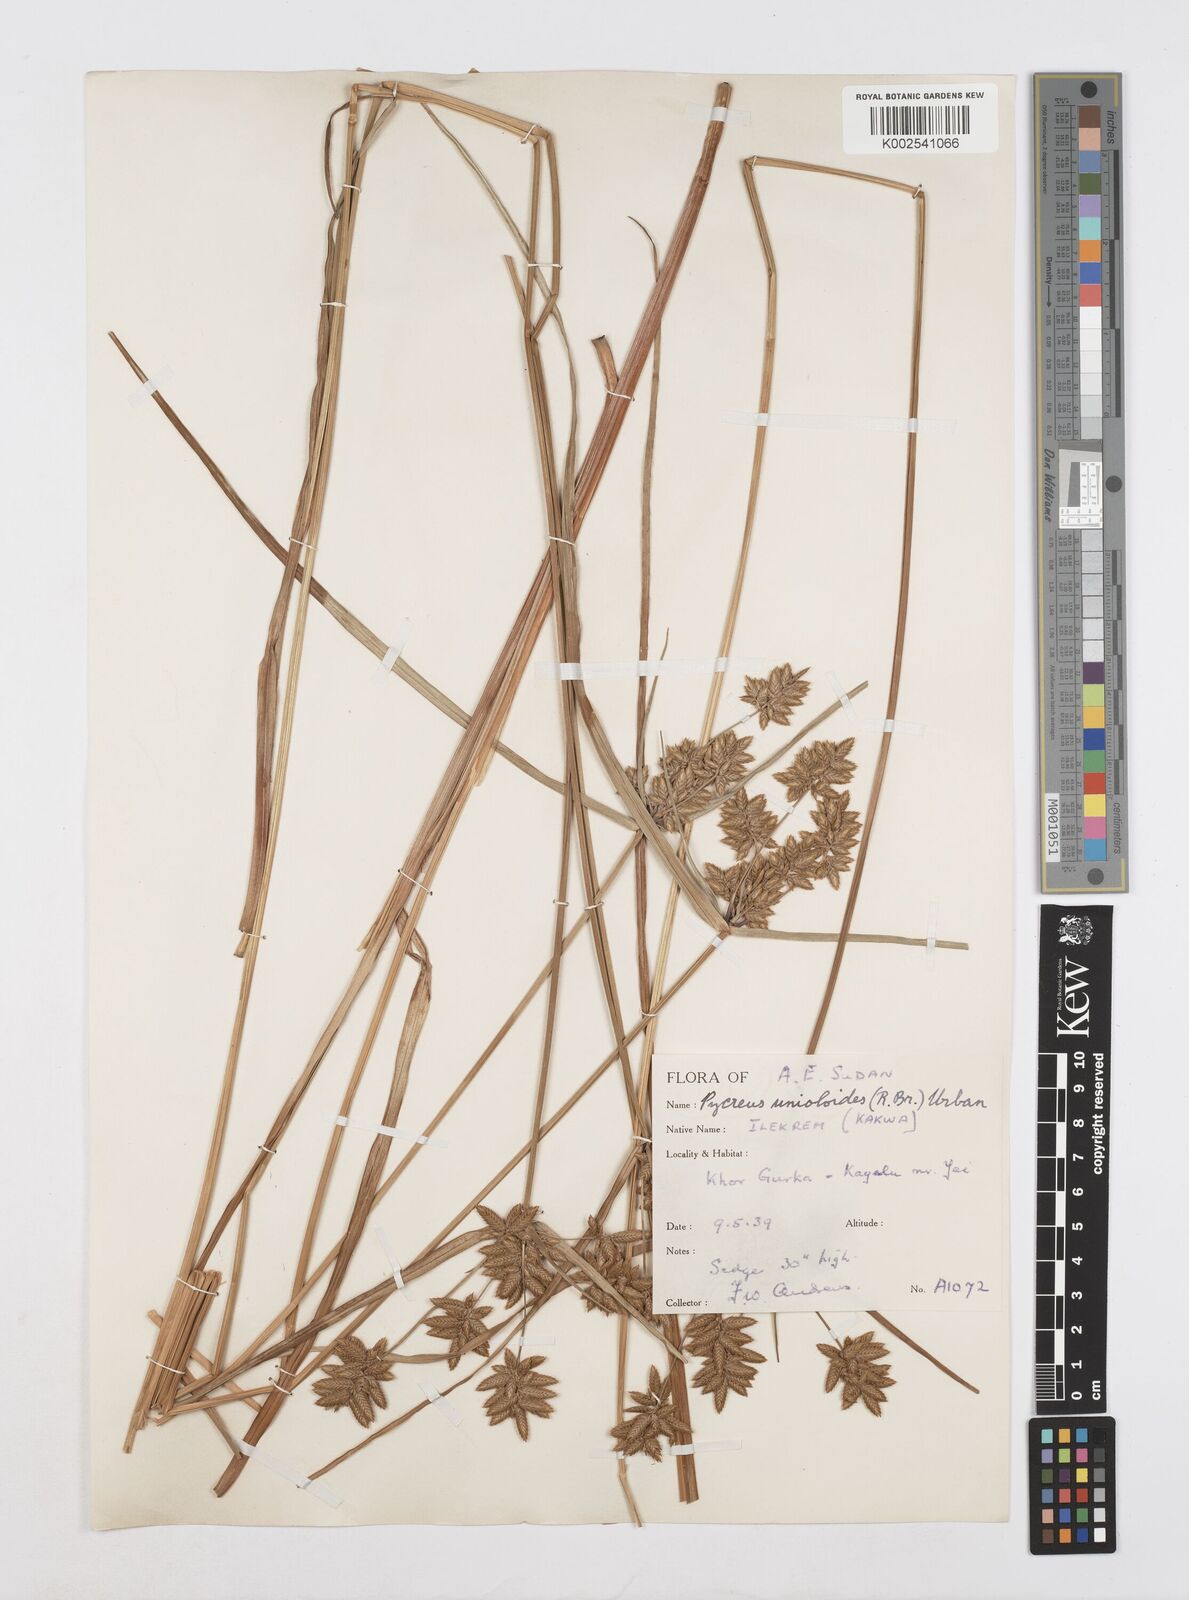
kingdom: Plantae
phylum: Tracheophyta
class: Liliopsida
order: Poales
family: Cyperaceae
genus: Cyperus
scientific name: Cyperus unioloides
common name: Uniola flatsedge
